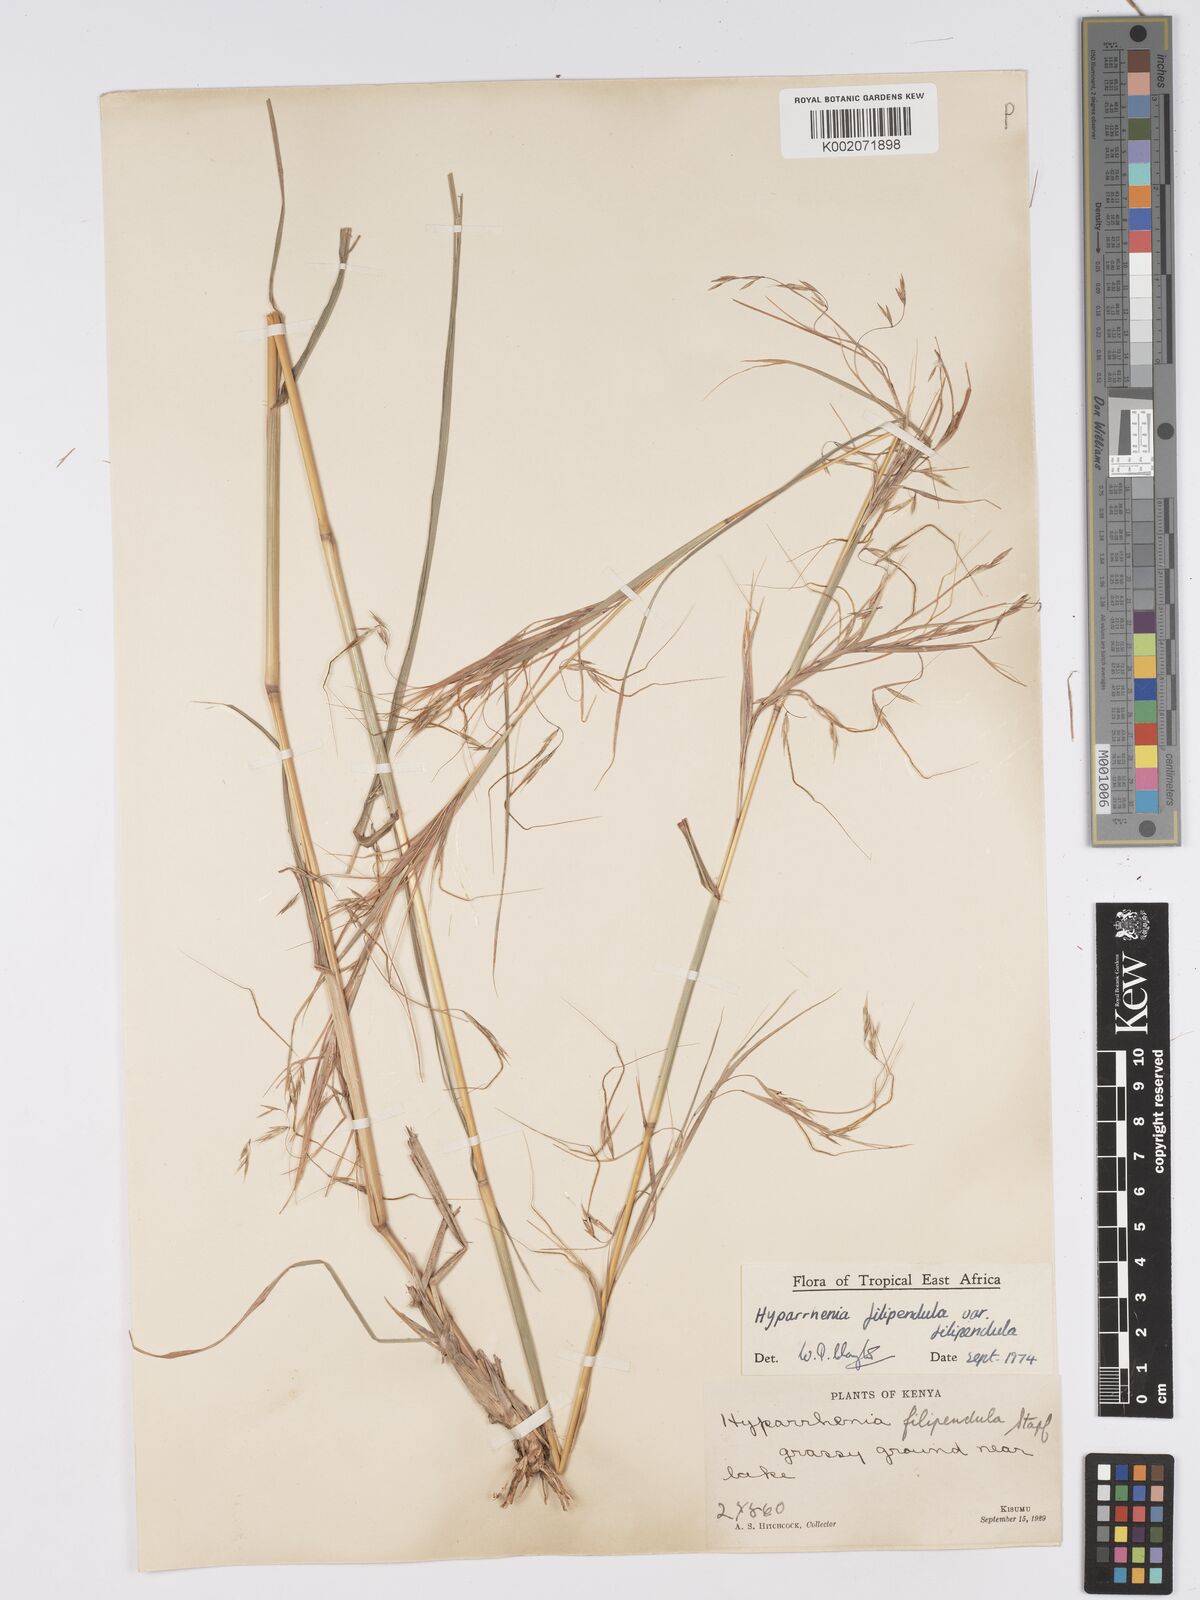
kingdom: Plantae
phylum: Tracheophyta
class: Liliopsida
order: Poales
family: Poaceae
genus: Hyparrhenia
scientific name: Hyparrhenia filipendula
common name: Tambookie grass
